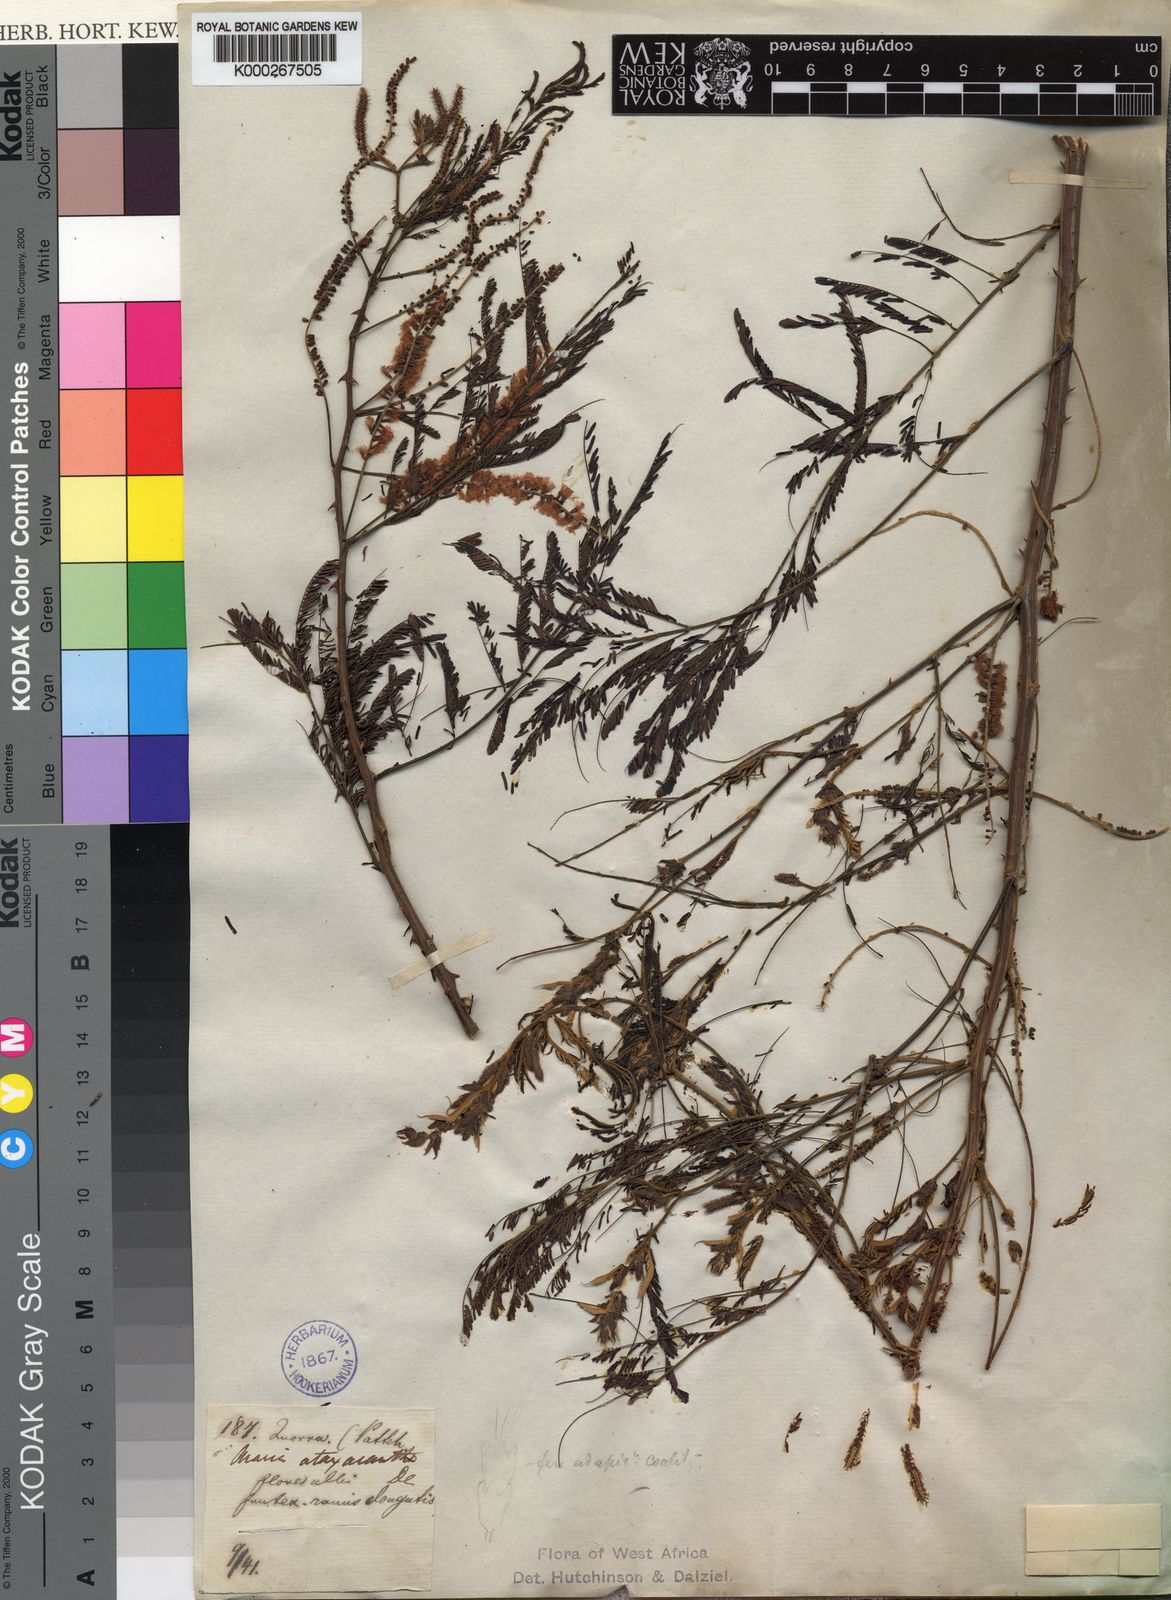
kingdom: Plantae
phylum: Tracheophyta
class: Magnoliopsida
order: Fabales
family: Fabaceae
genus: Senegalia
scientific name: Senegalia ataxacantha
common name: Flame acacia
